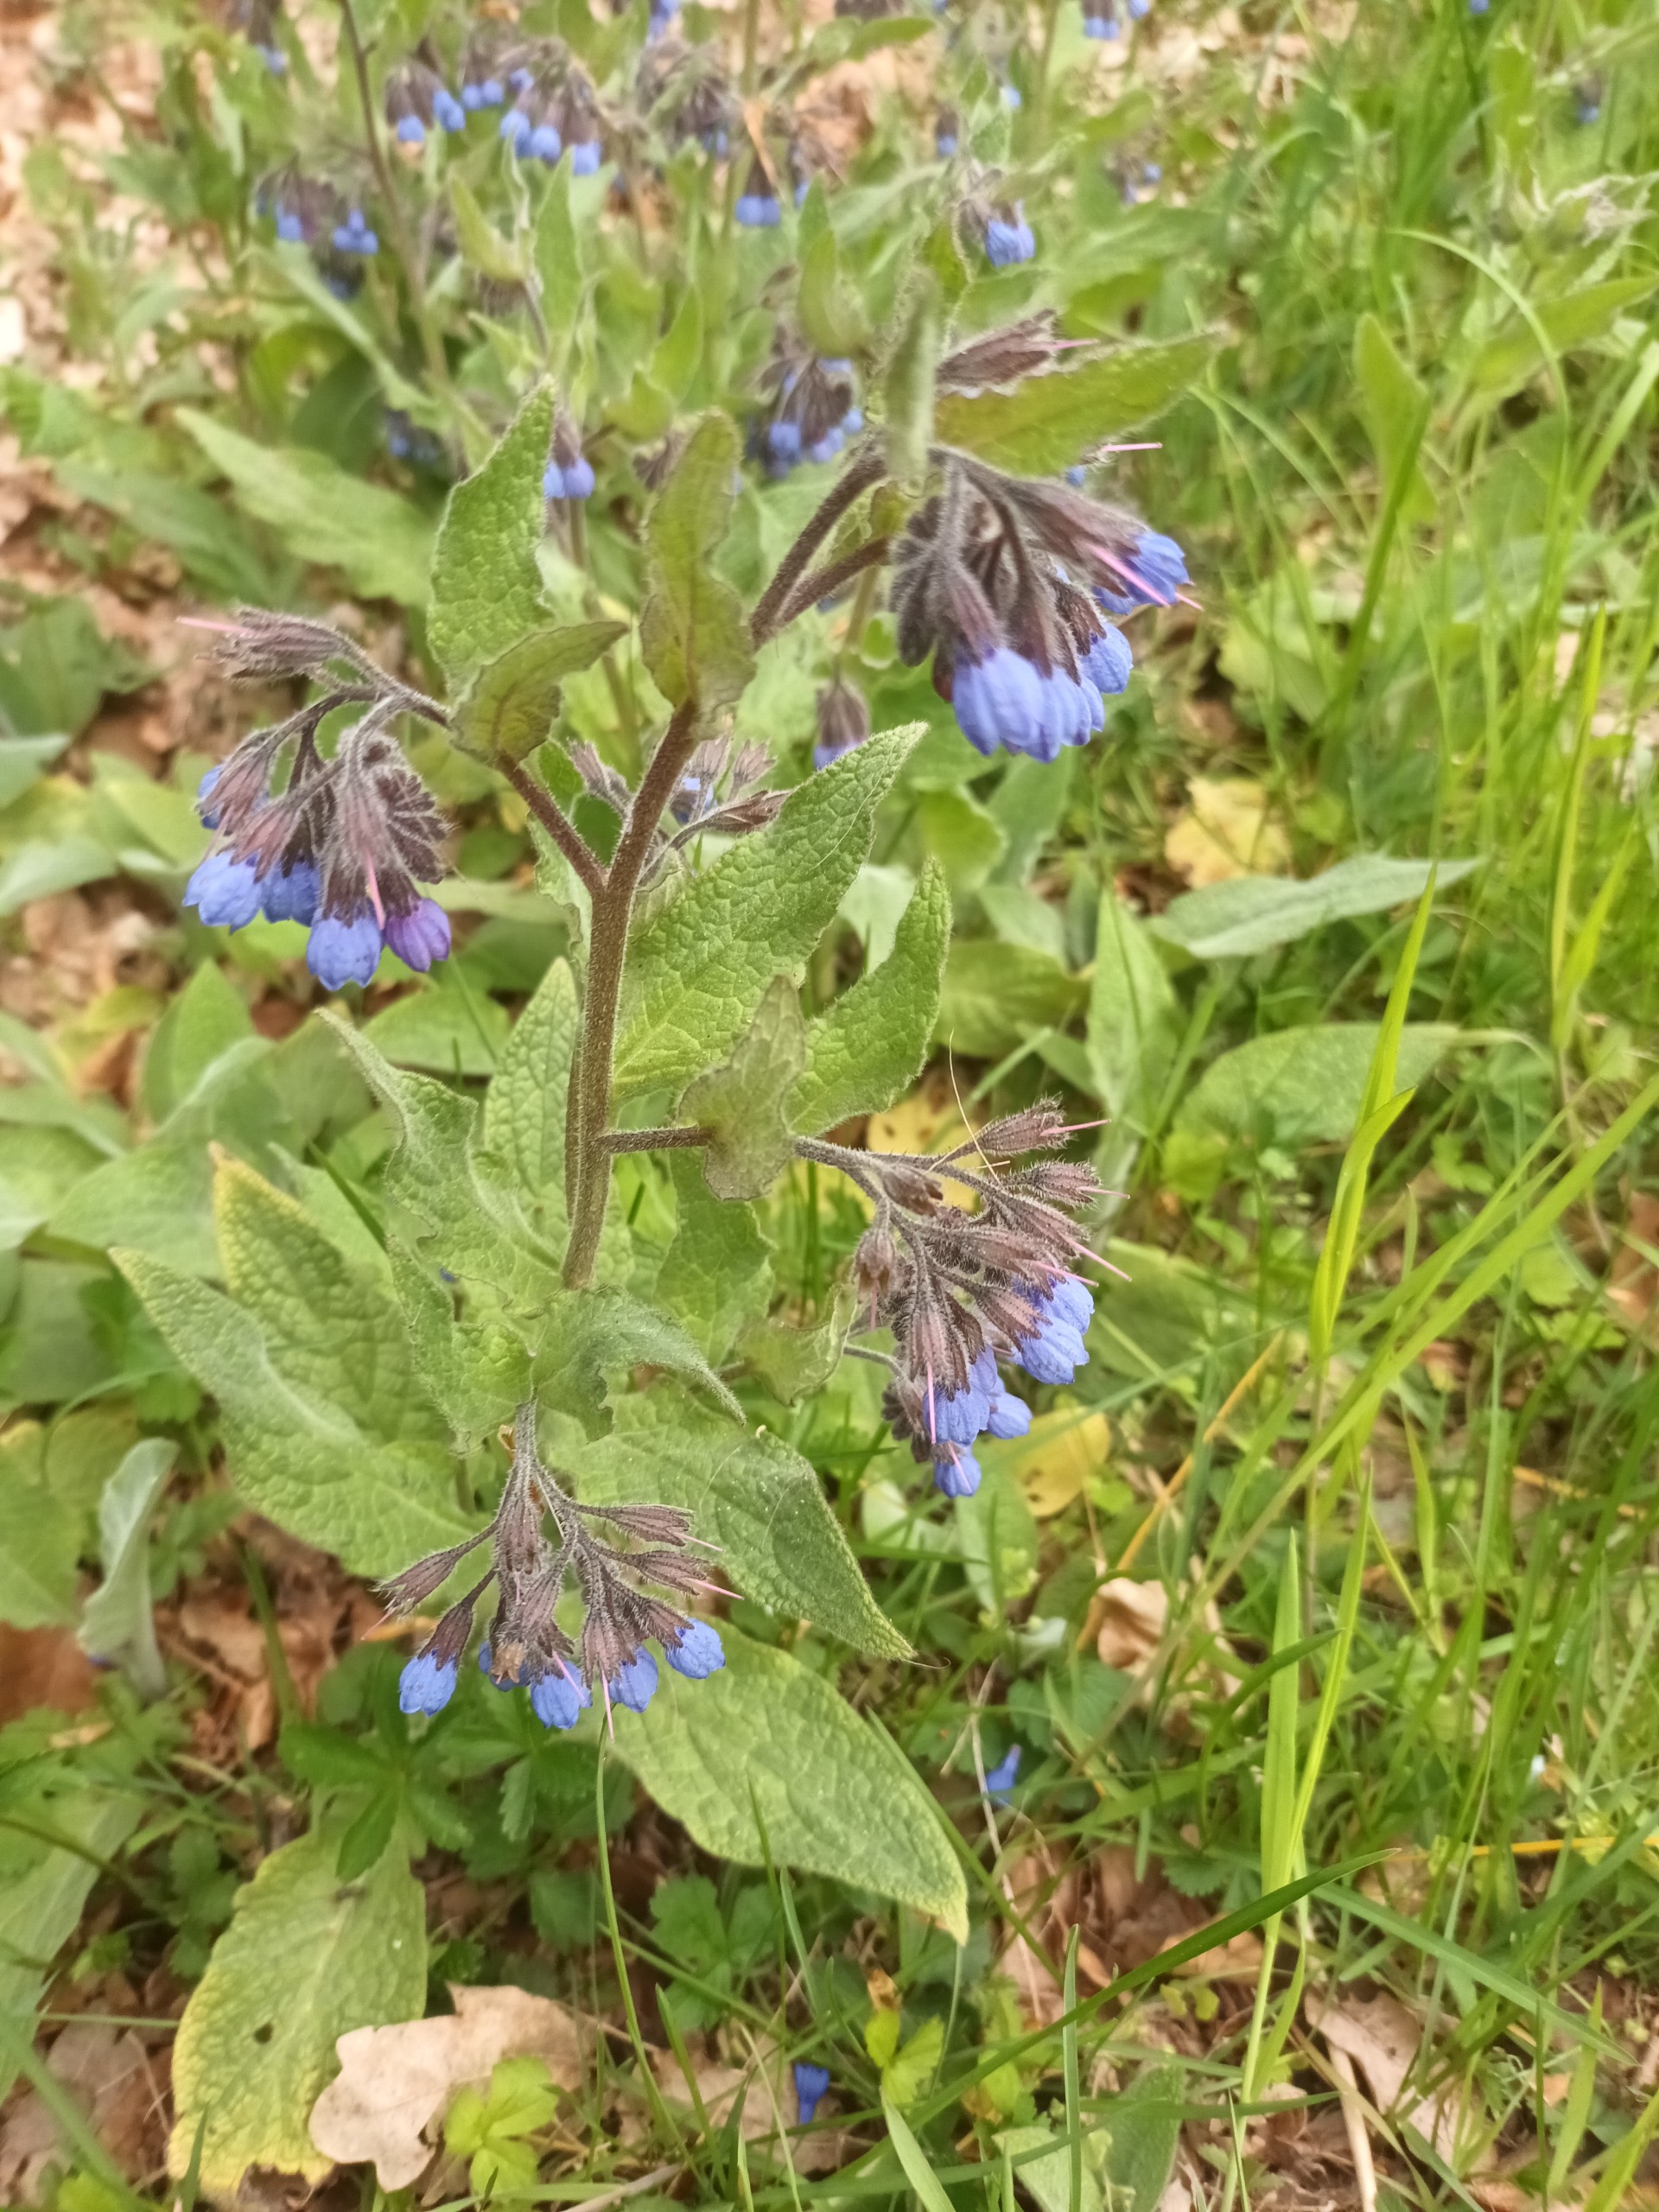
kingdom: Plantae
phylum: Tracheophyta
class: Magnoliopsida
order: Boraginales
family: Boraginaceae
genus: Symphytum
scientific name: Symphytum caucasicum
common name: Kaukasisk kulsukker
